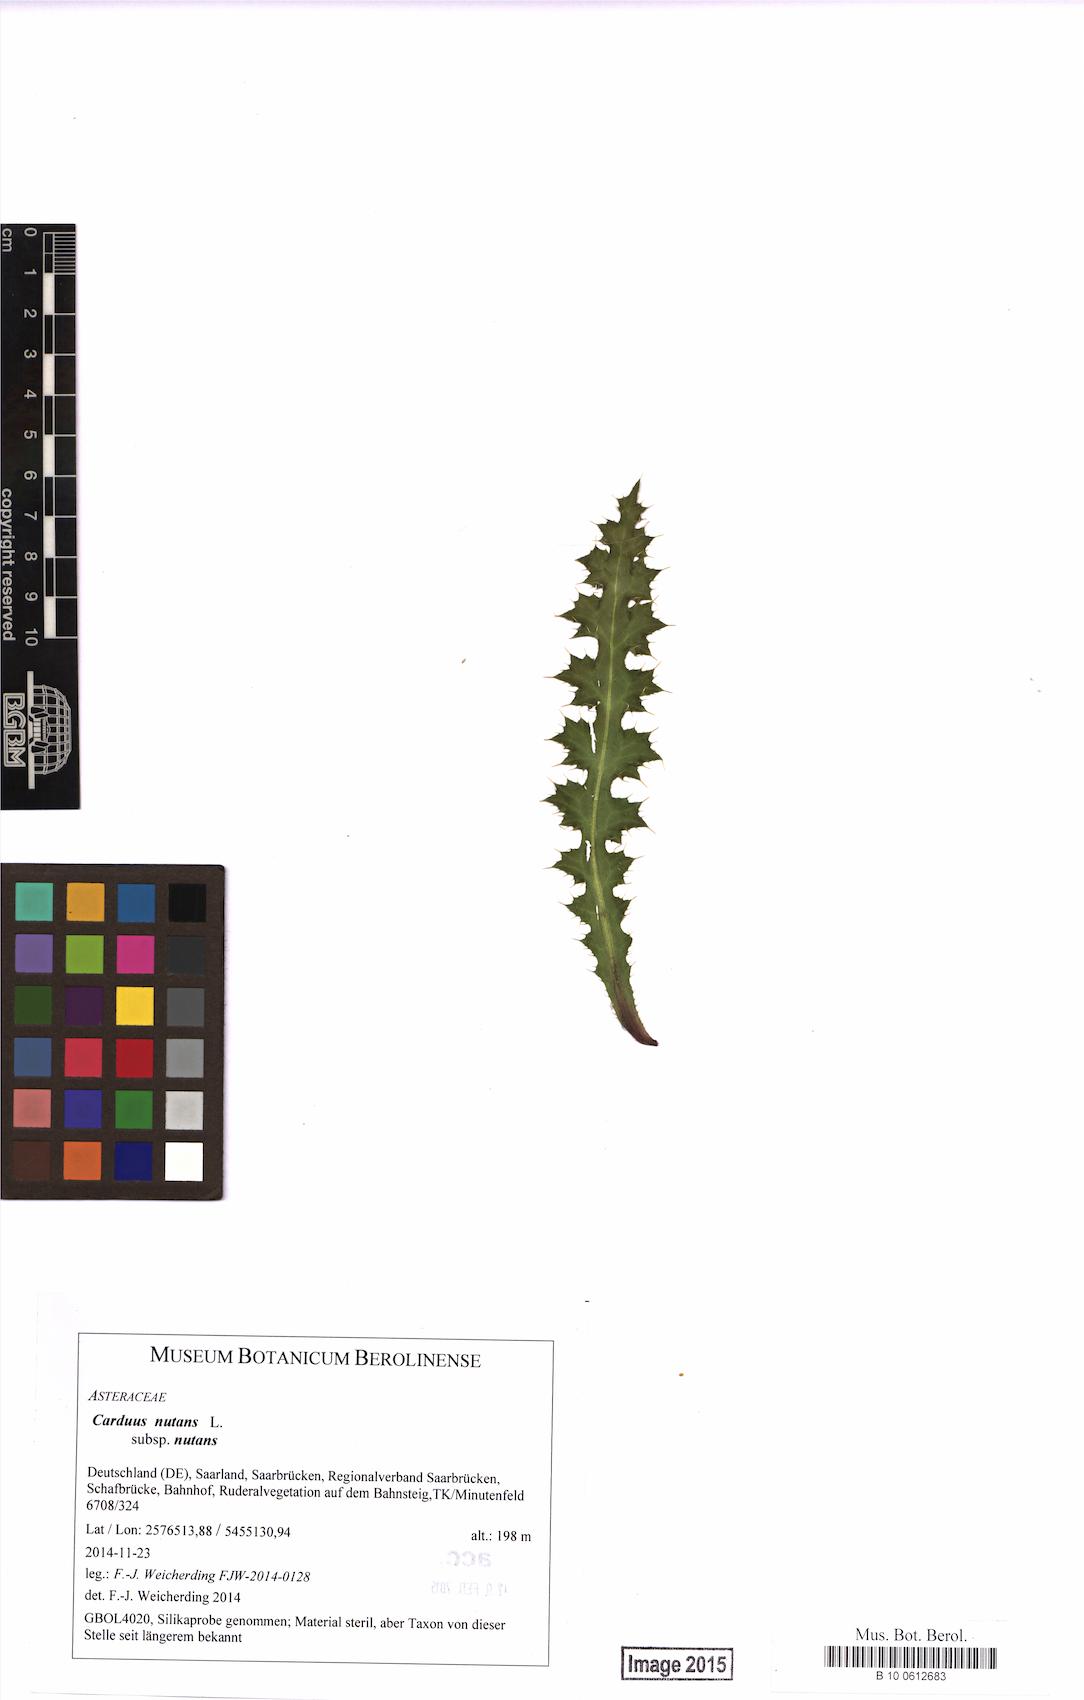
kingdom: Plantae
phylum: Tracheophyta
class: Magnoliopsida
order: Asterales
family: Asteraceae
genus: Carduus
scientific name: Carduus nutans
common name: Musk thistle
